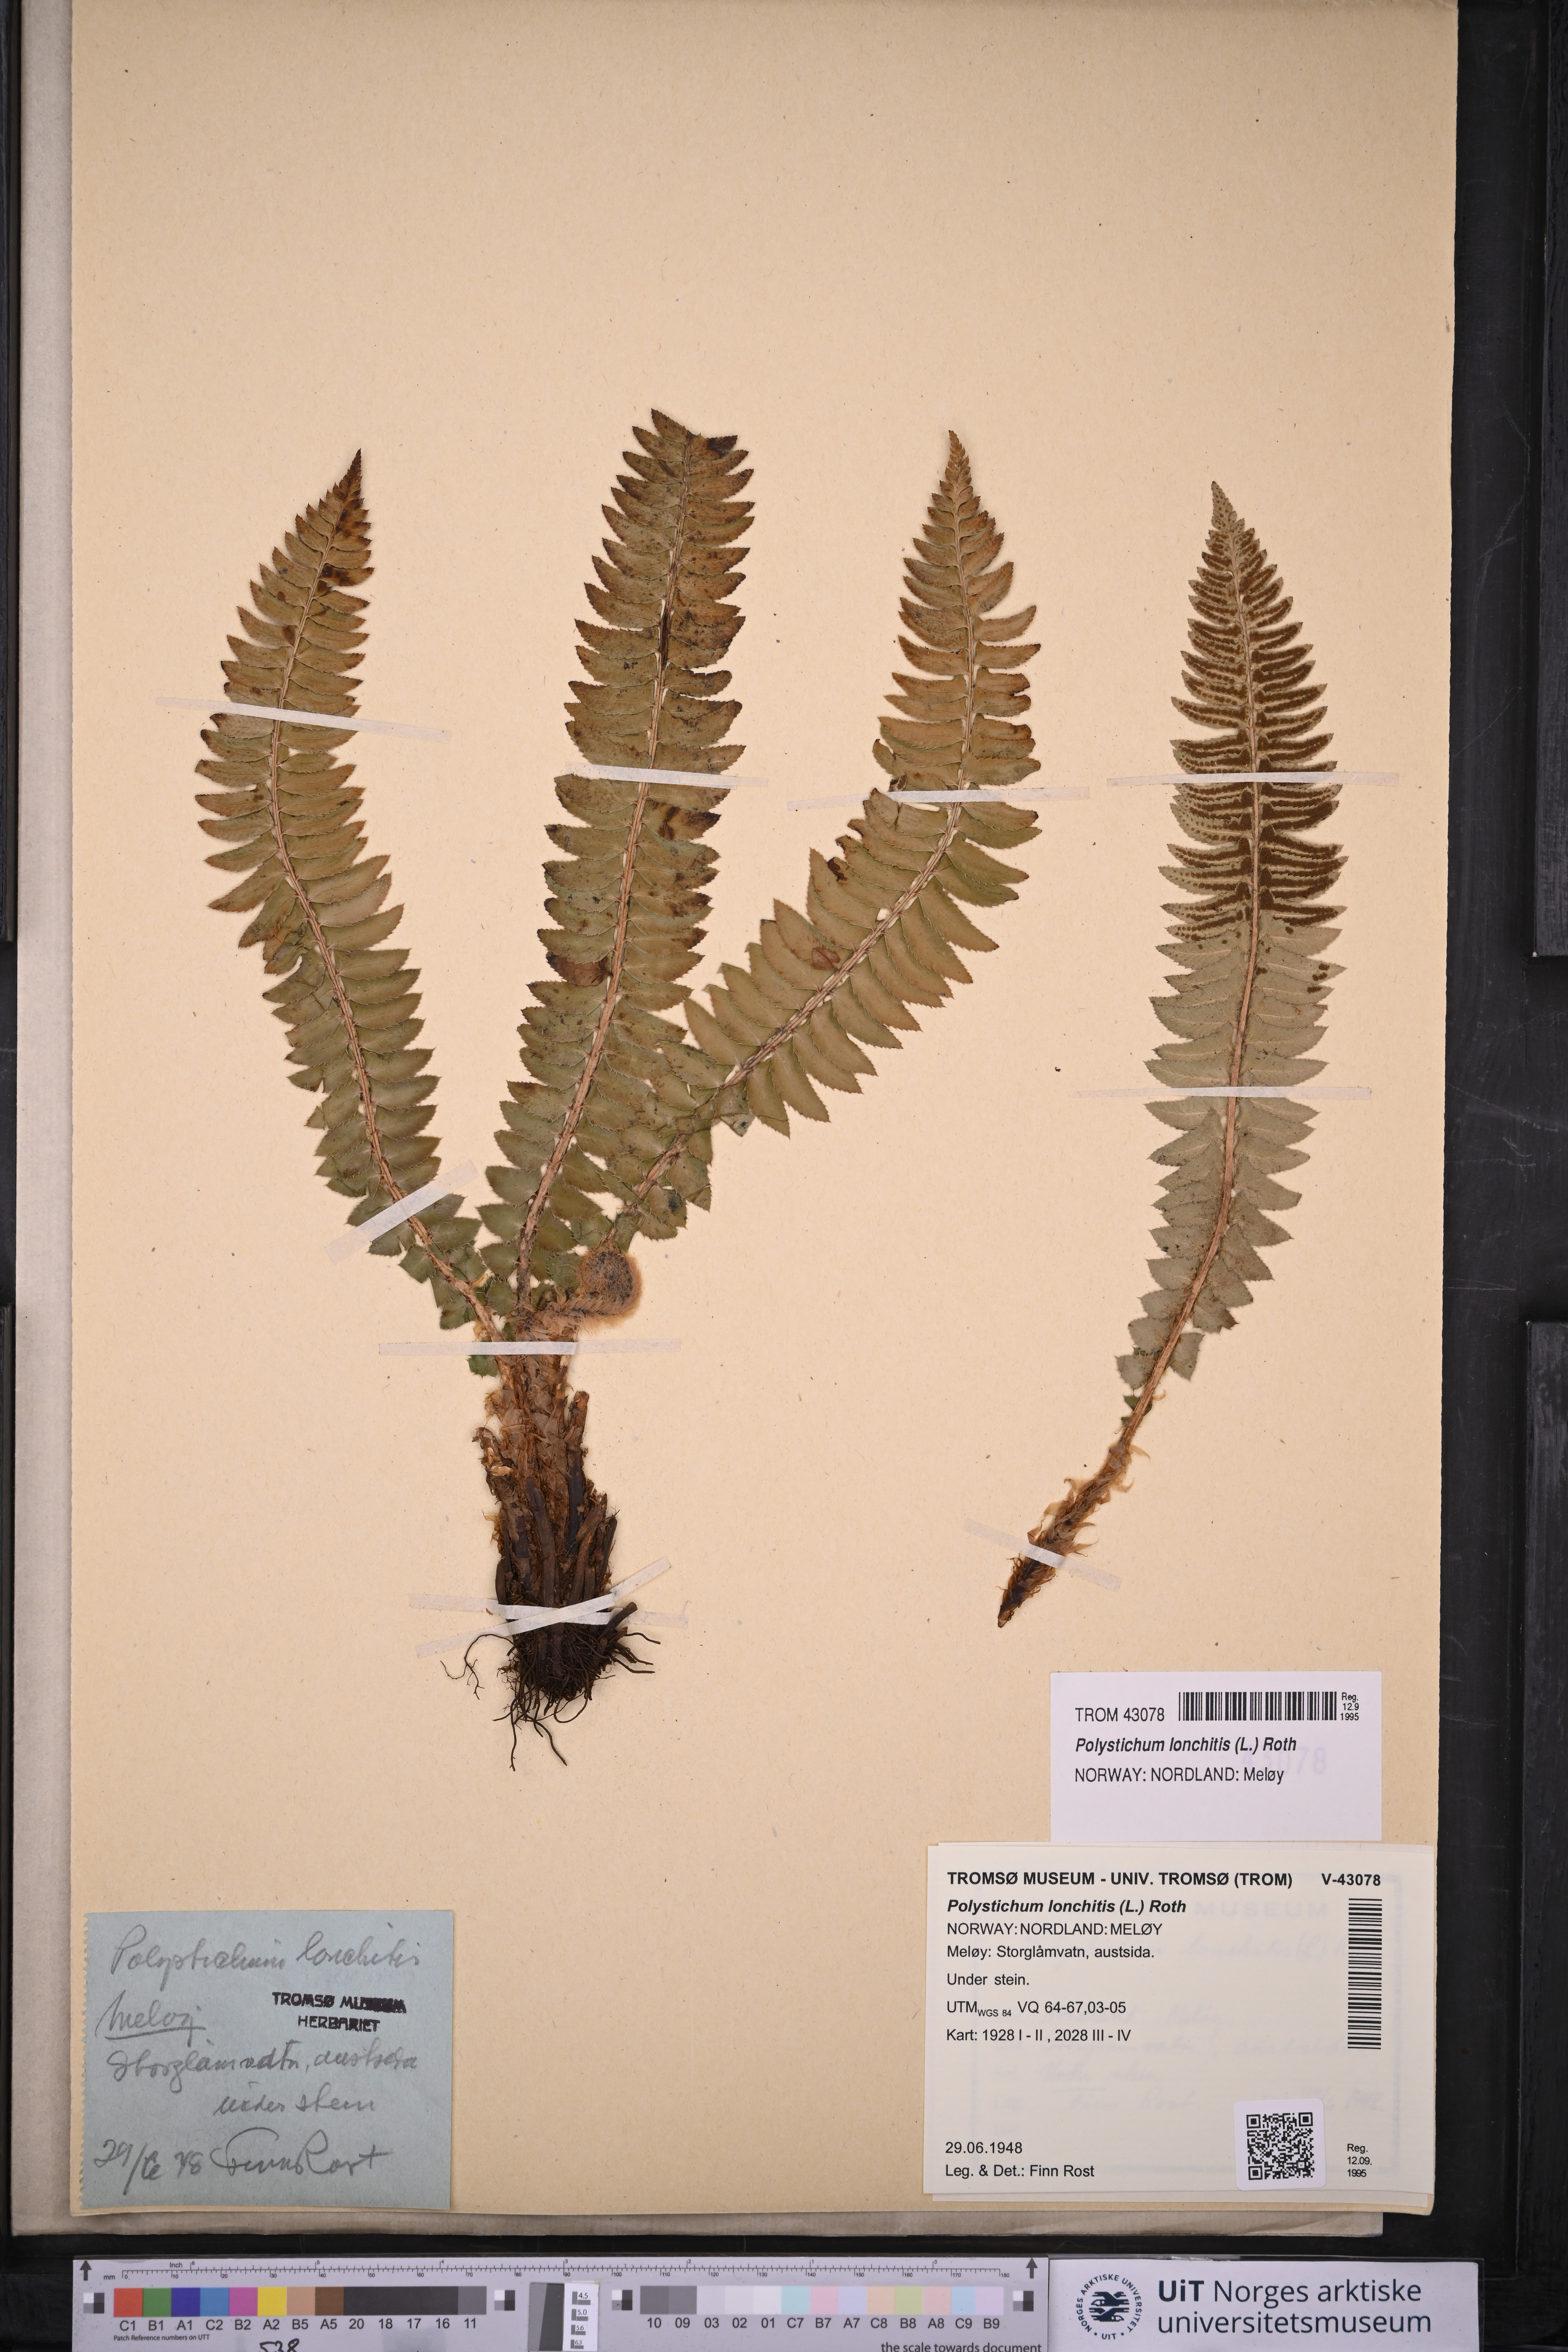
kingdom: Plantae
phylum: Tracheophyta
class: Polypodiopsida
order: Polypodiales
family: Dryopteridaceae
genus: Polystichum
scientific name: Polystichum lonchitis
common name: Holly fern
